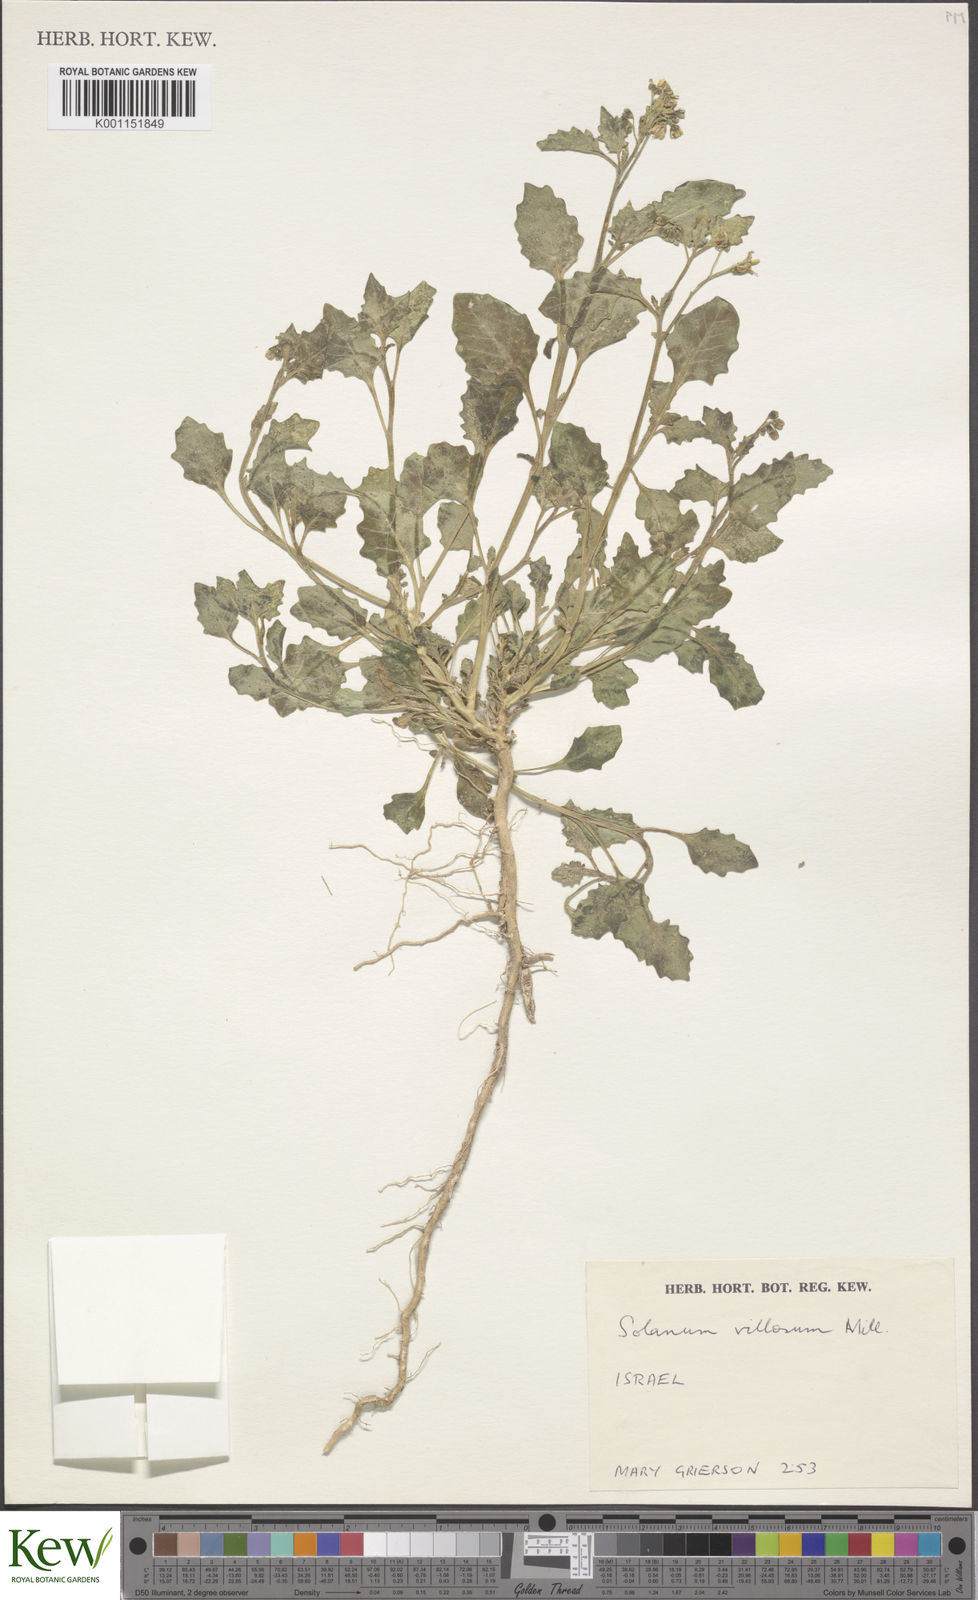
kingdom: Plantae
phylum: Tracheophyta
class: Magnoliopsida
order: Solanales
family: Solanaceae
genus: Solanum
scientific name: Solanum retroflexum
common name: Wonderberry
